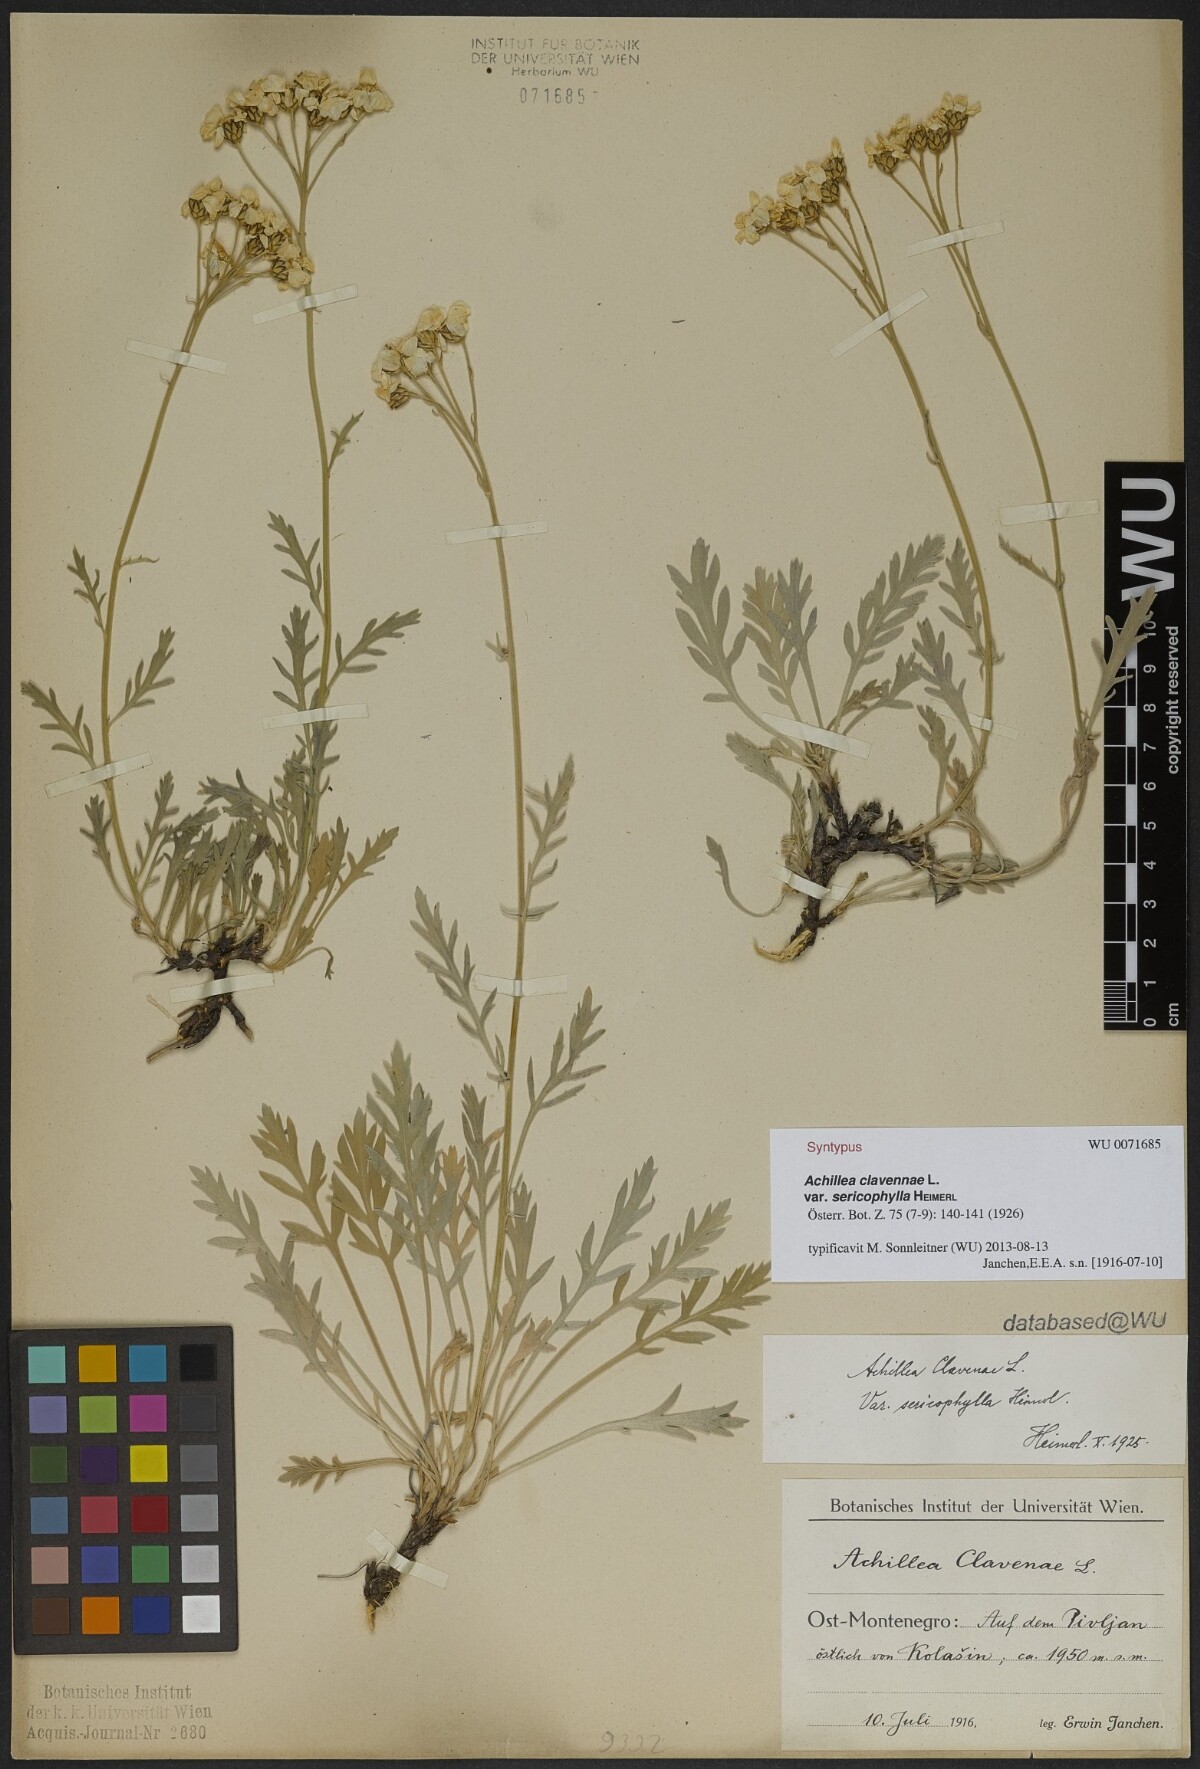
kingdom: Plantae
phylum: Tracheophyta
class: Magnoliopsida
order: Asterales
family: Asteraceae
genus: Achillea
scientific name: Achillea clavennae
